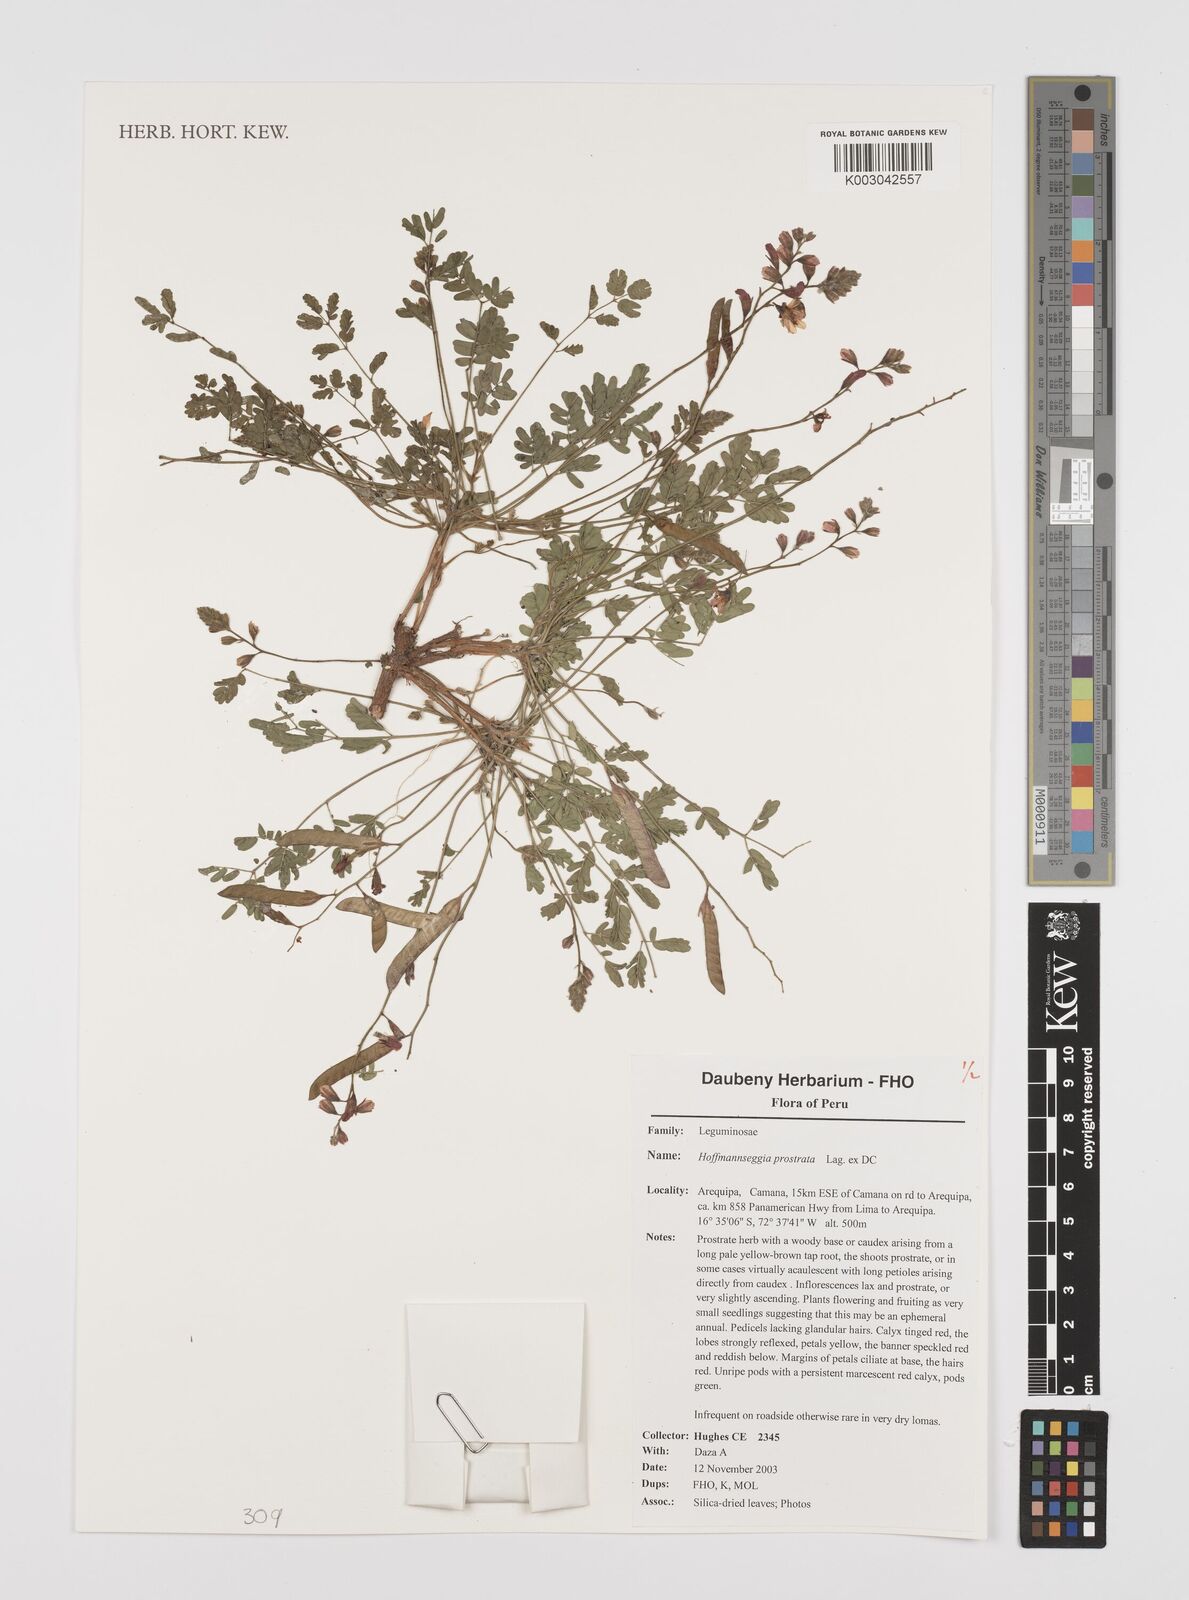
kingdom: Plantae
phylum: Tracheophyta
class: Magnoliopsida
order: Fabales
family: Fabaceae
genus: Hoffmannseggia
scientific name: Hoffmannseggia prostrata
